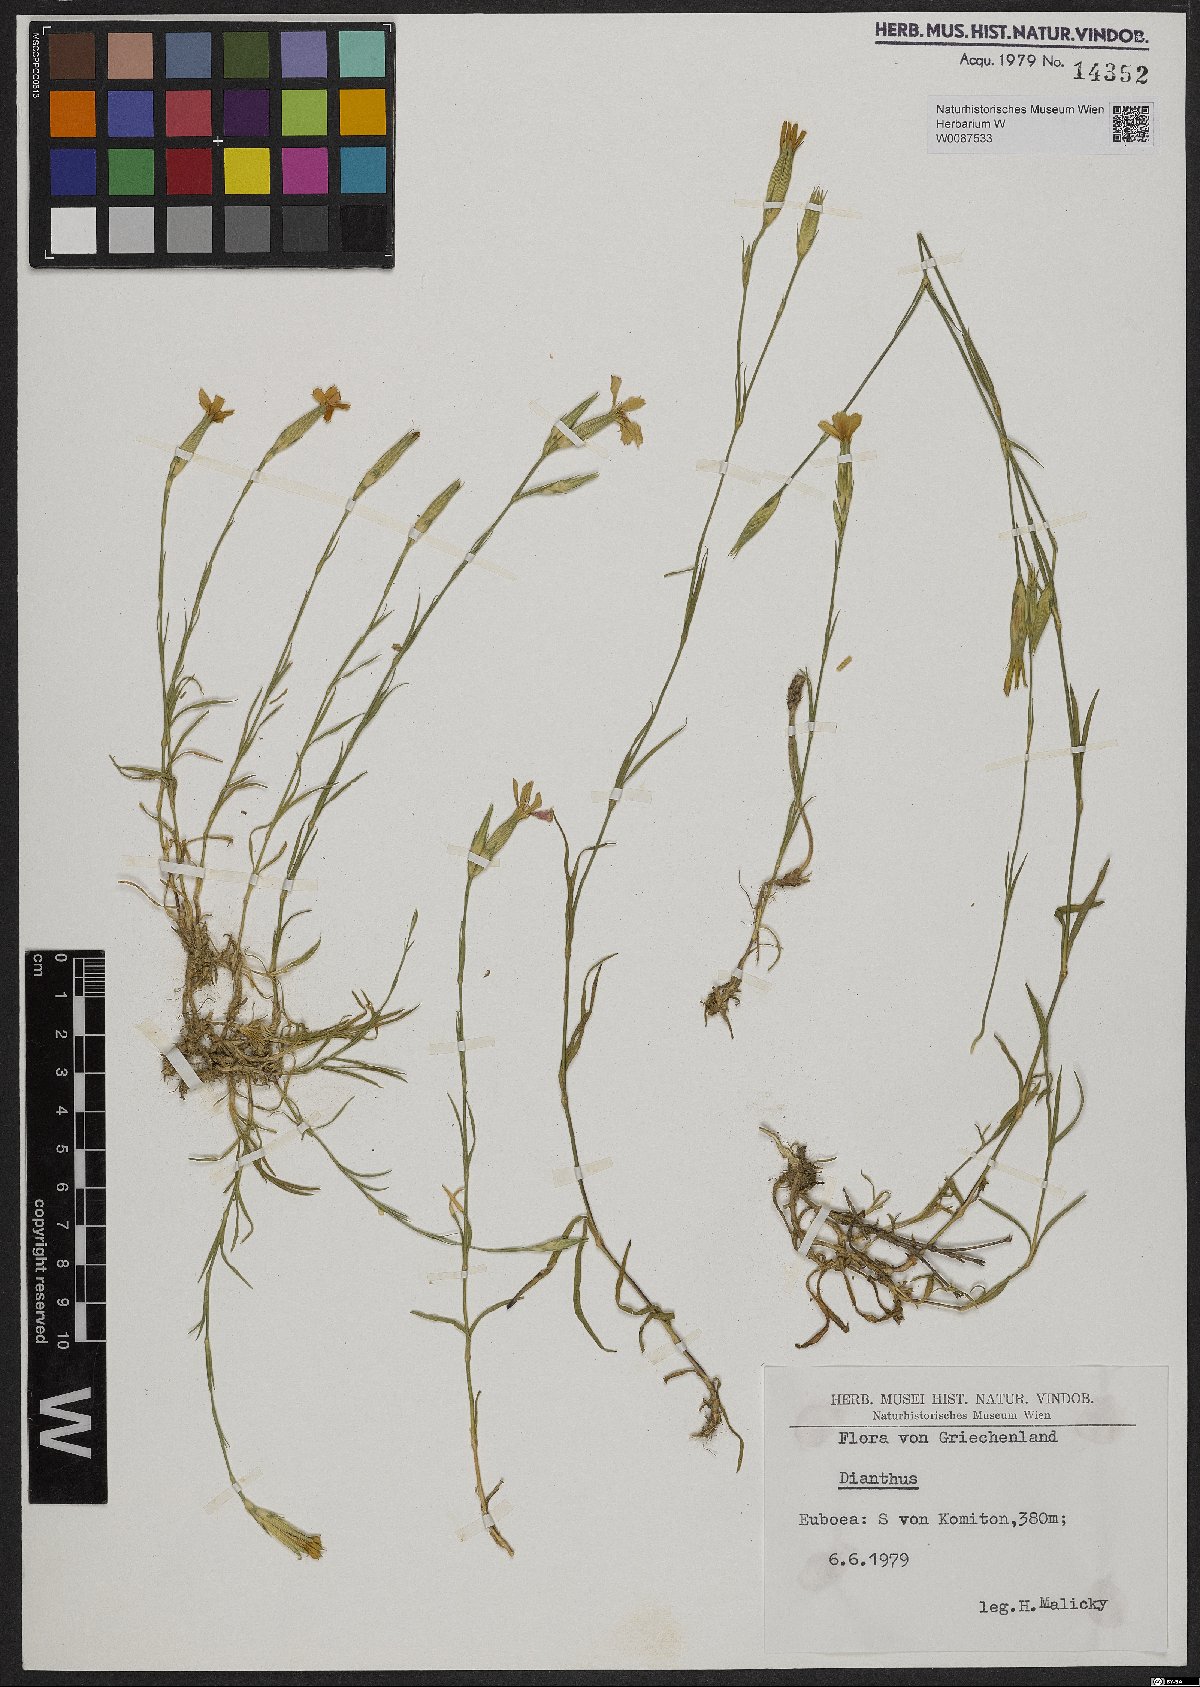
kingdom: Plantae
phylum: Tracheophyta
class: Magnoliopsida
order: Caryophyllales
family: Caryophyllaceae
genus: Dianthus
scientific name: Dianthus
